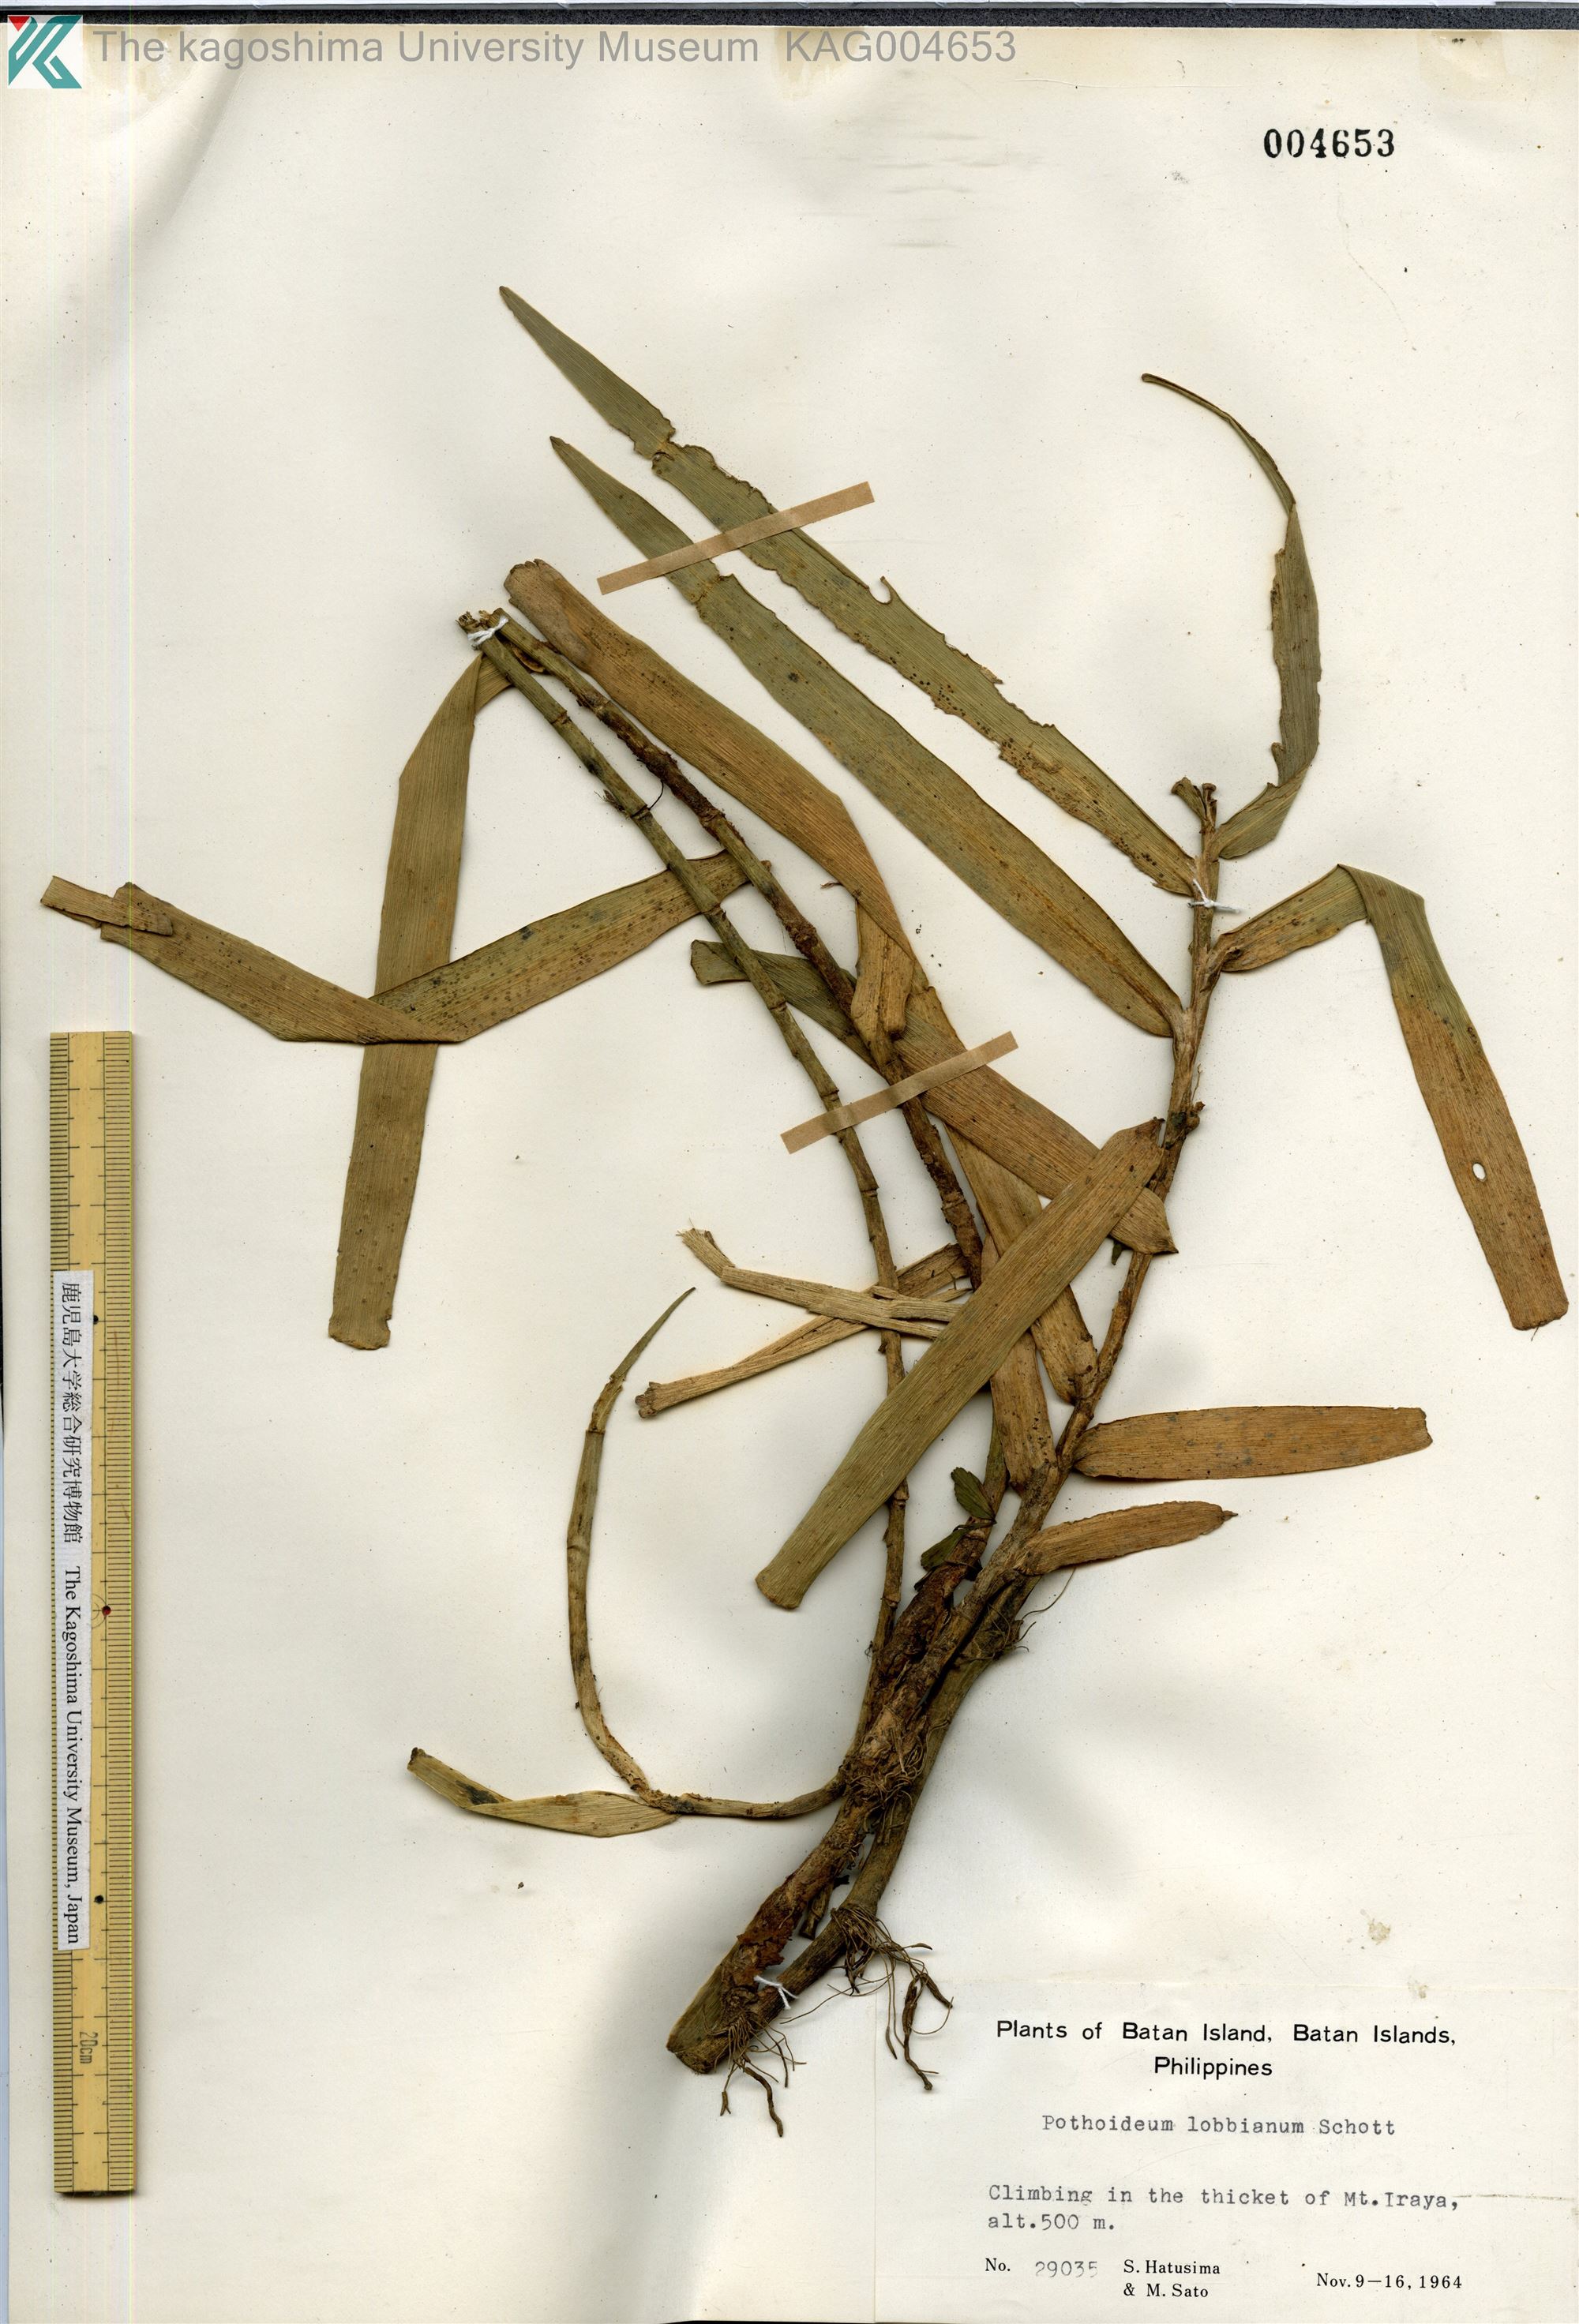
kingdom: Plantae
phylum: Tracheophyta
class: Liliopsida
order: Alismatales
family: Araceae
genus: Pothoidium
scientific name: Pothoidium lobbianum
